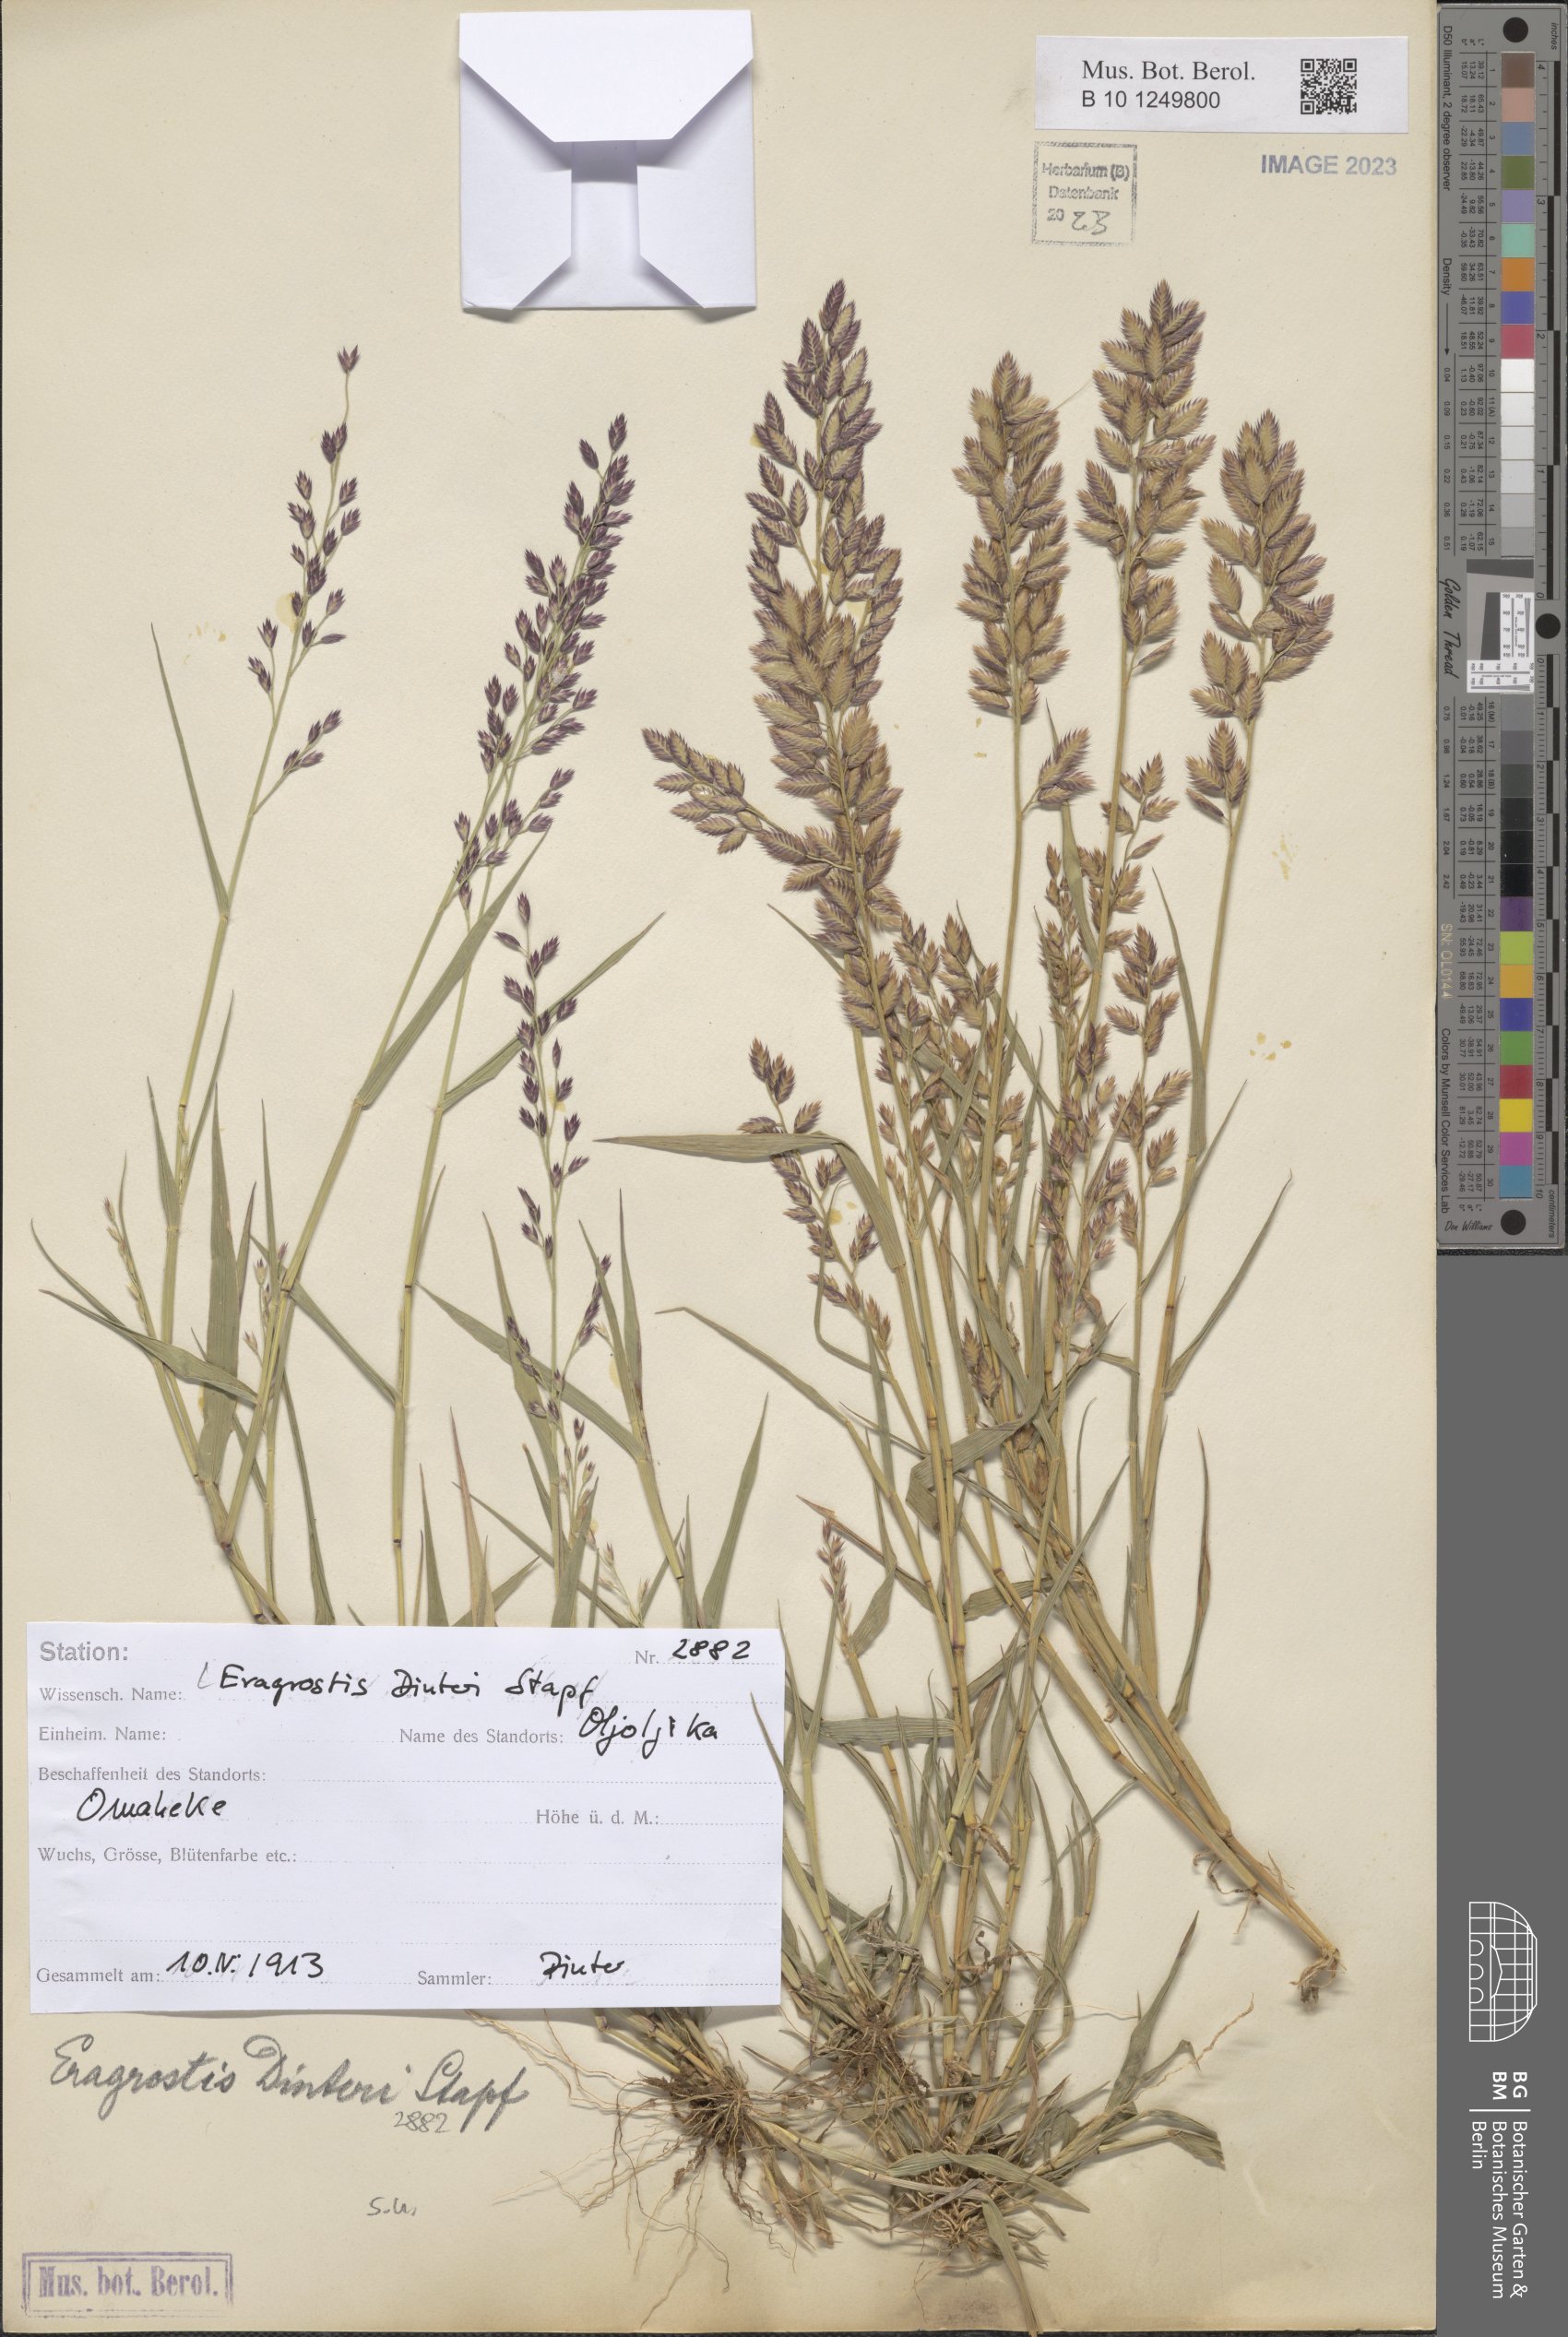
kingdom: Plantae
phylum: Tracheophyta
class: Liliopsida
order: Poales
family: Poaceae
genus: Eragrostis
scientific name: Eragrostis dinteri
